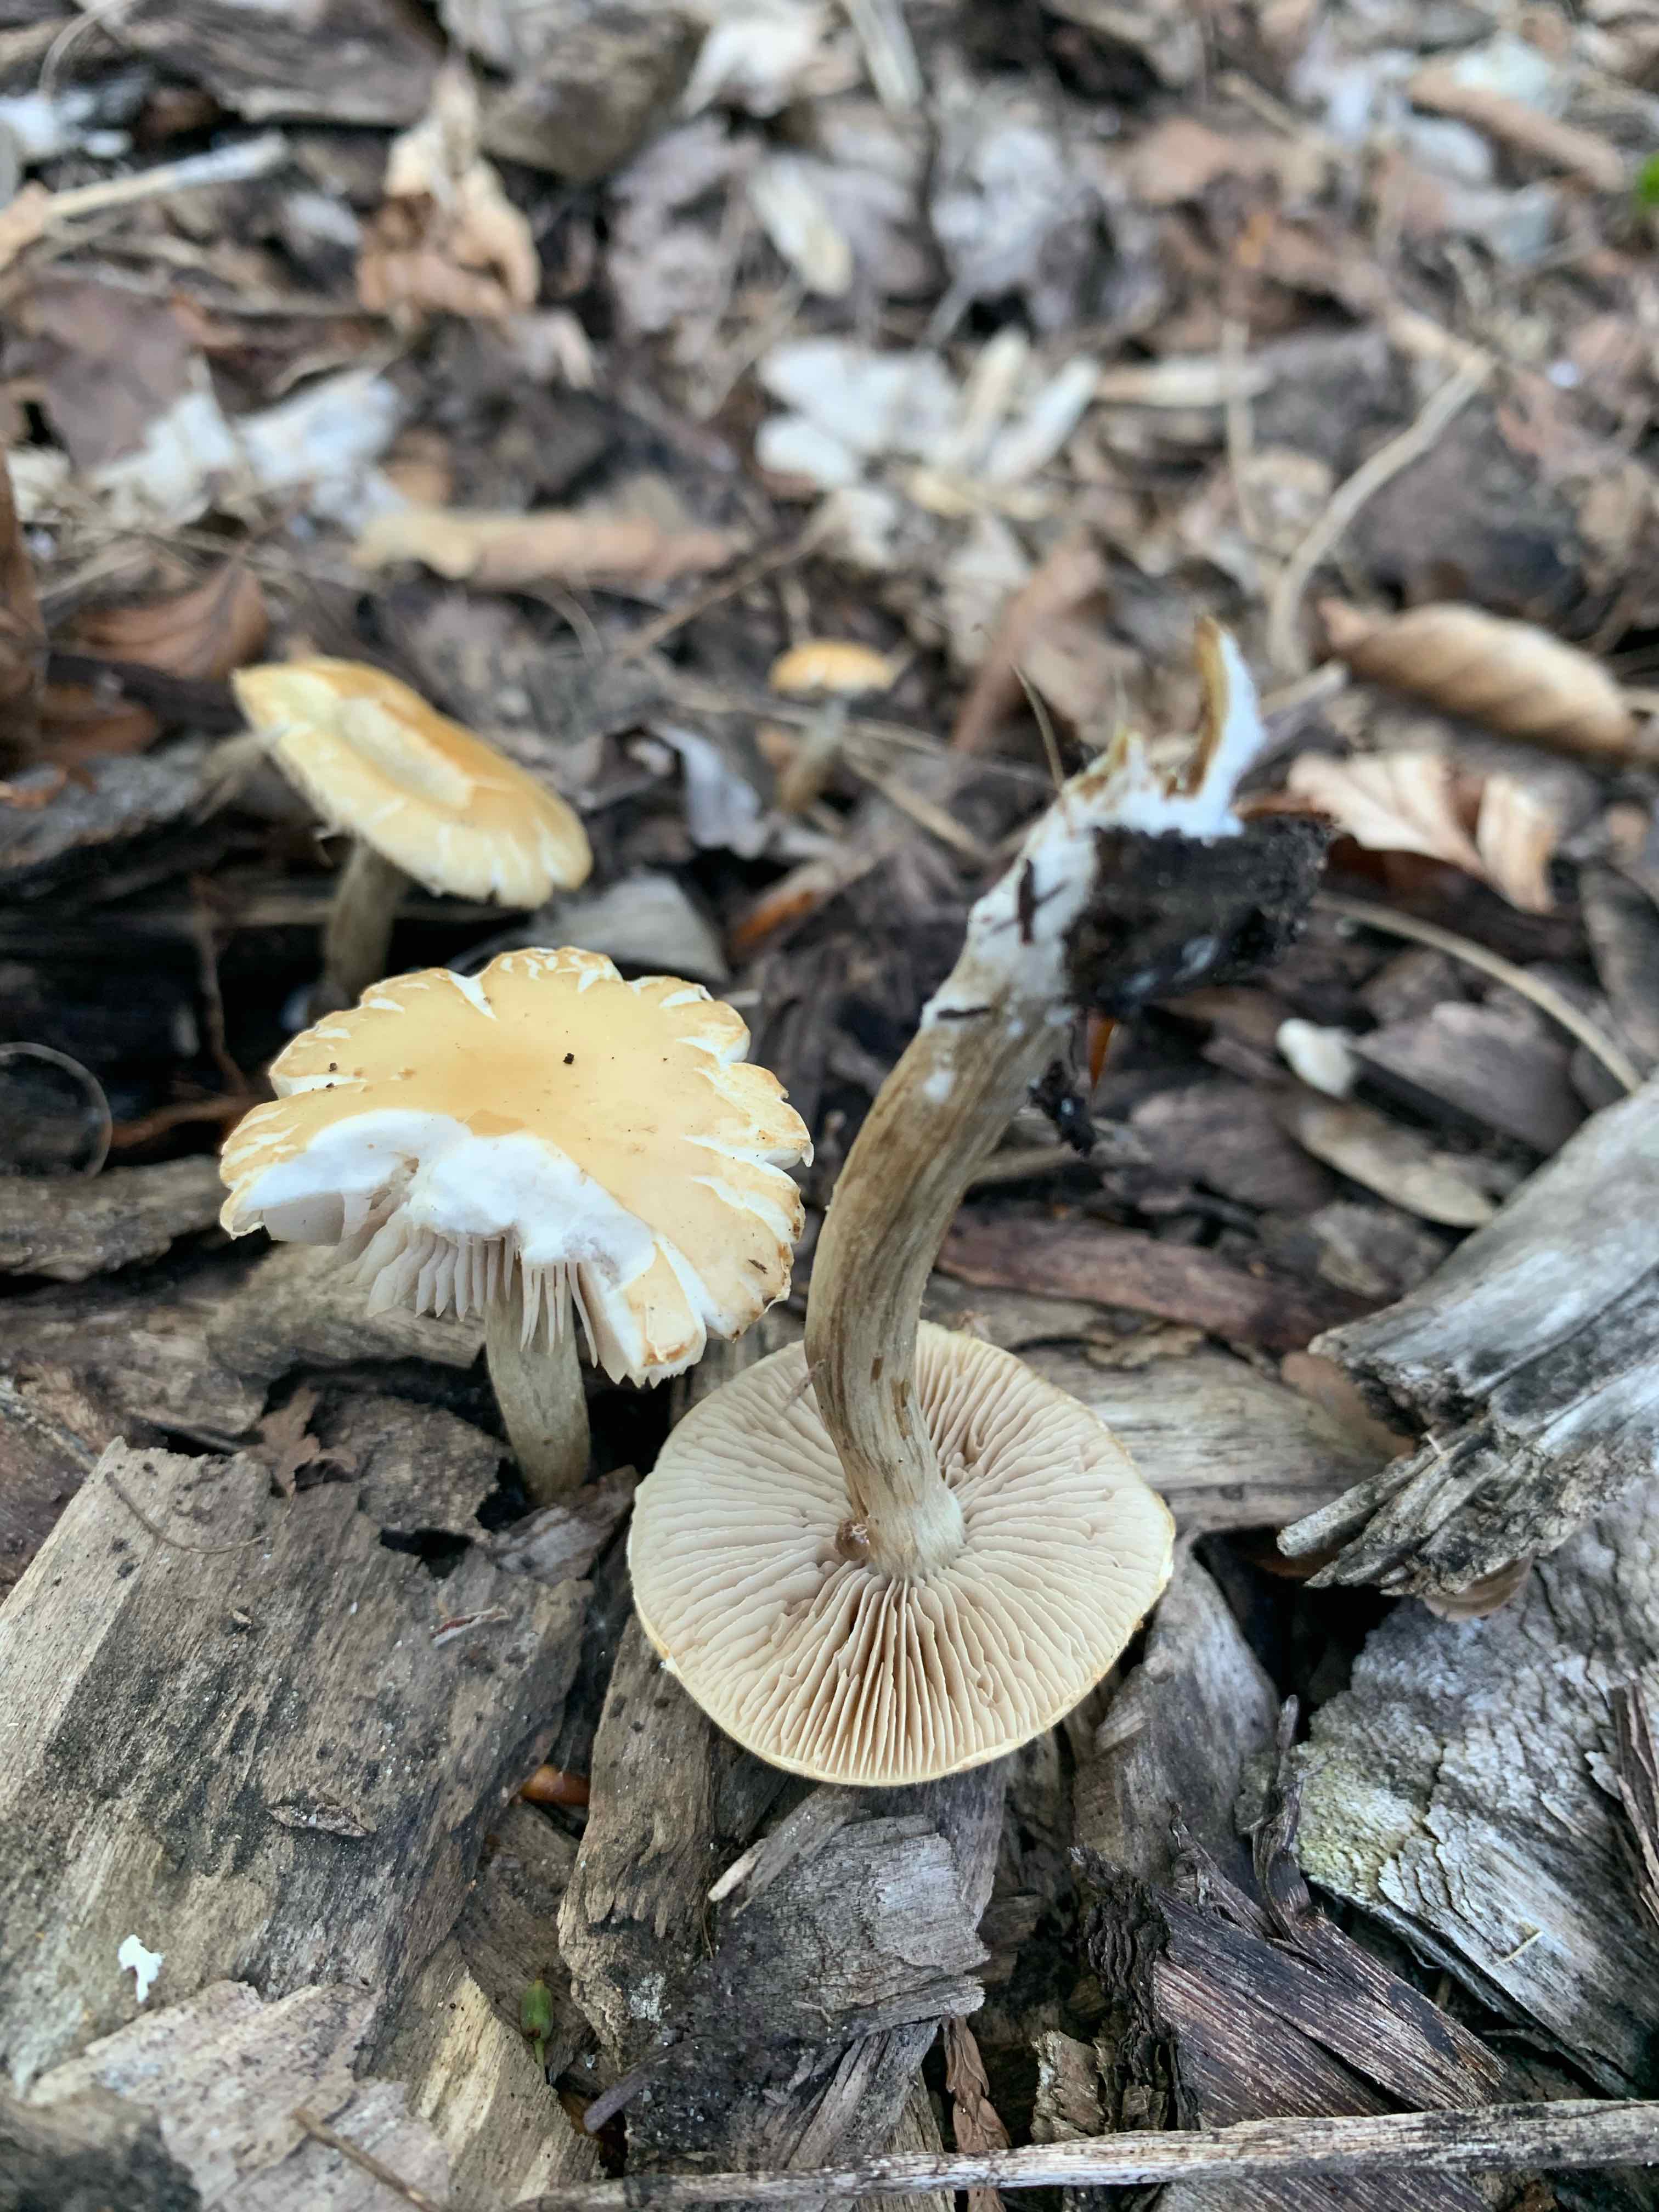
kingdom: Fungi
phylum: Basidiomycota
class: Agaricomycetes
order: Agaricales
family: Strophariaceae
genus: Agrocybe
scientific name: Agrocybe
